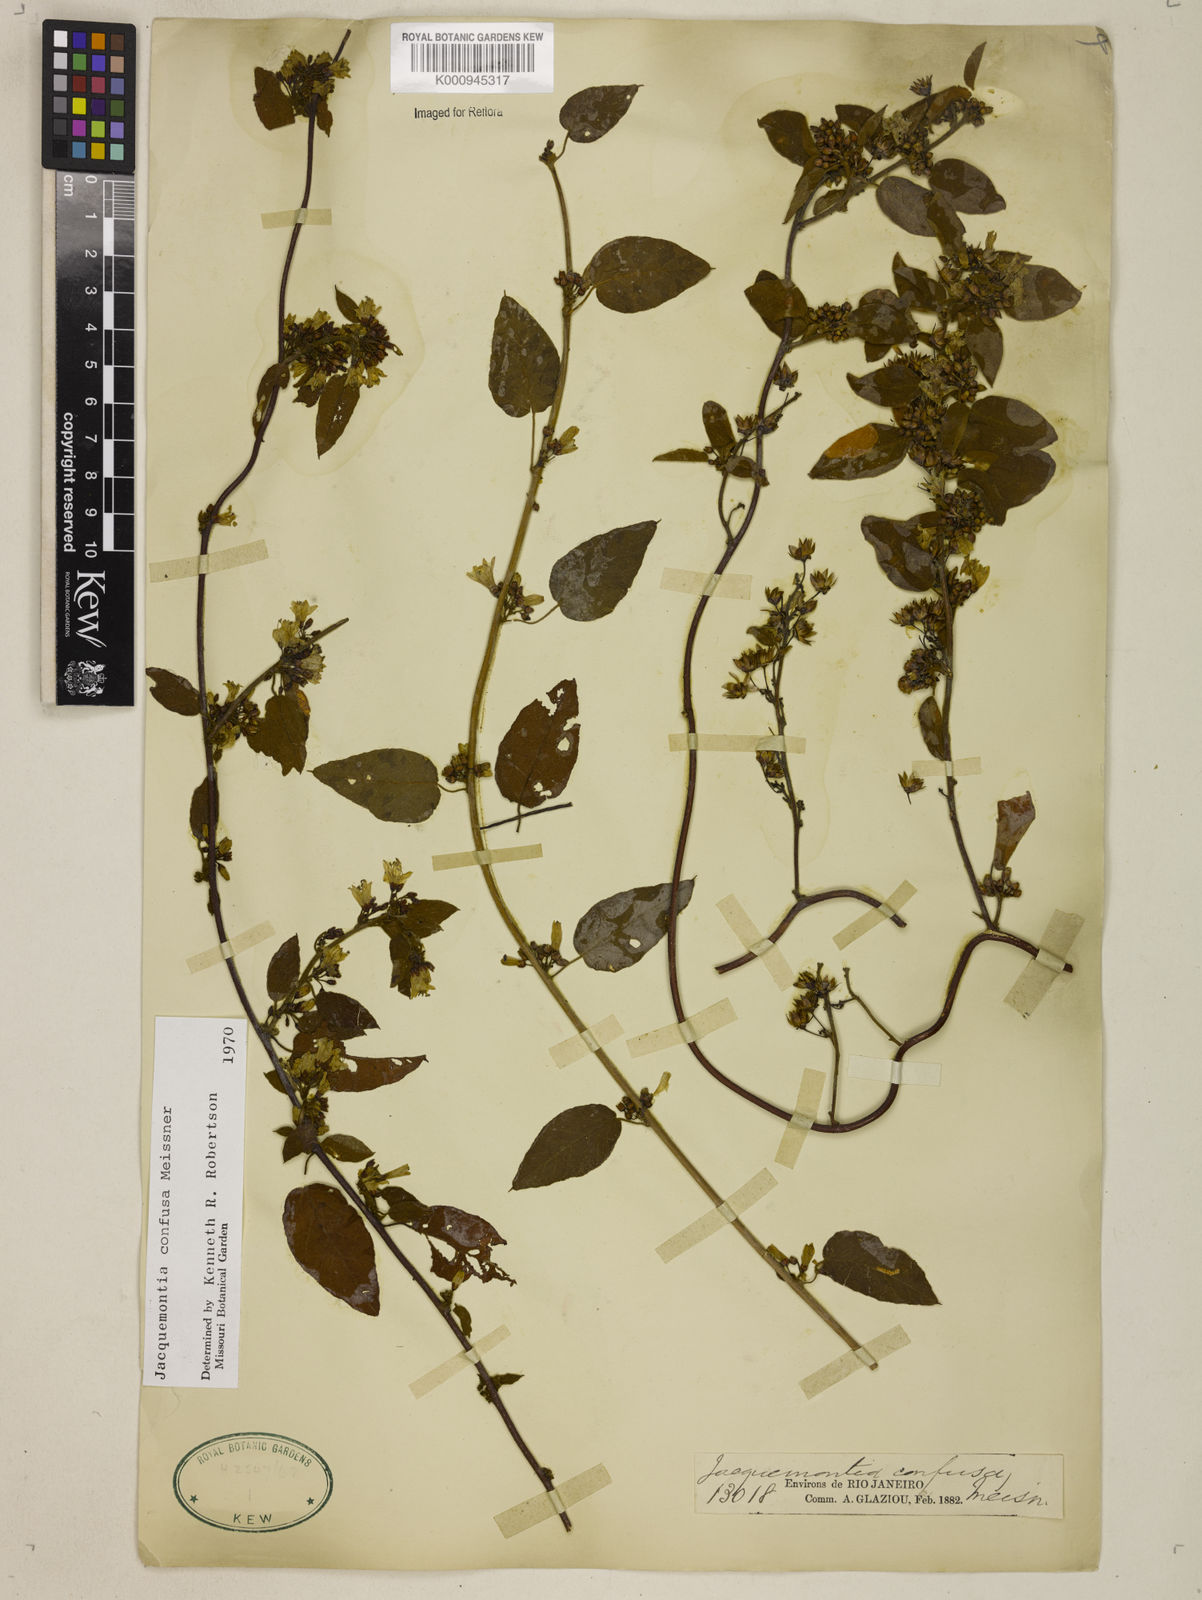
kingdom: Plantae
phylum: Tracheophyta
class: Magnoliopsida
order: Solanales
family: Convolvulaceae
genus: Jacquemontia
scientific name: Jacquemontia nodiflora
